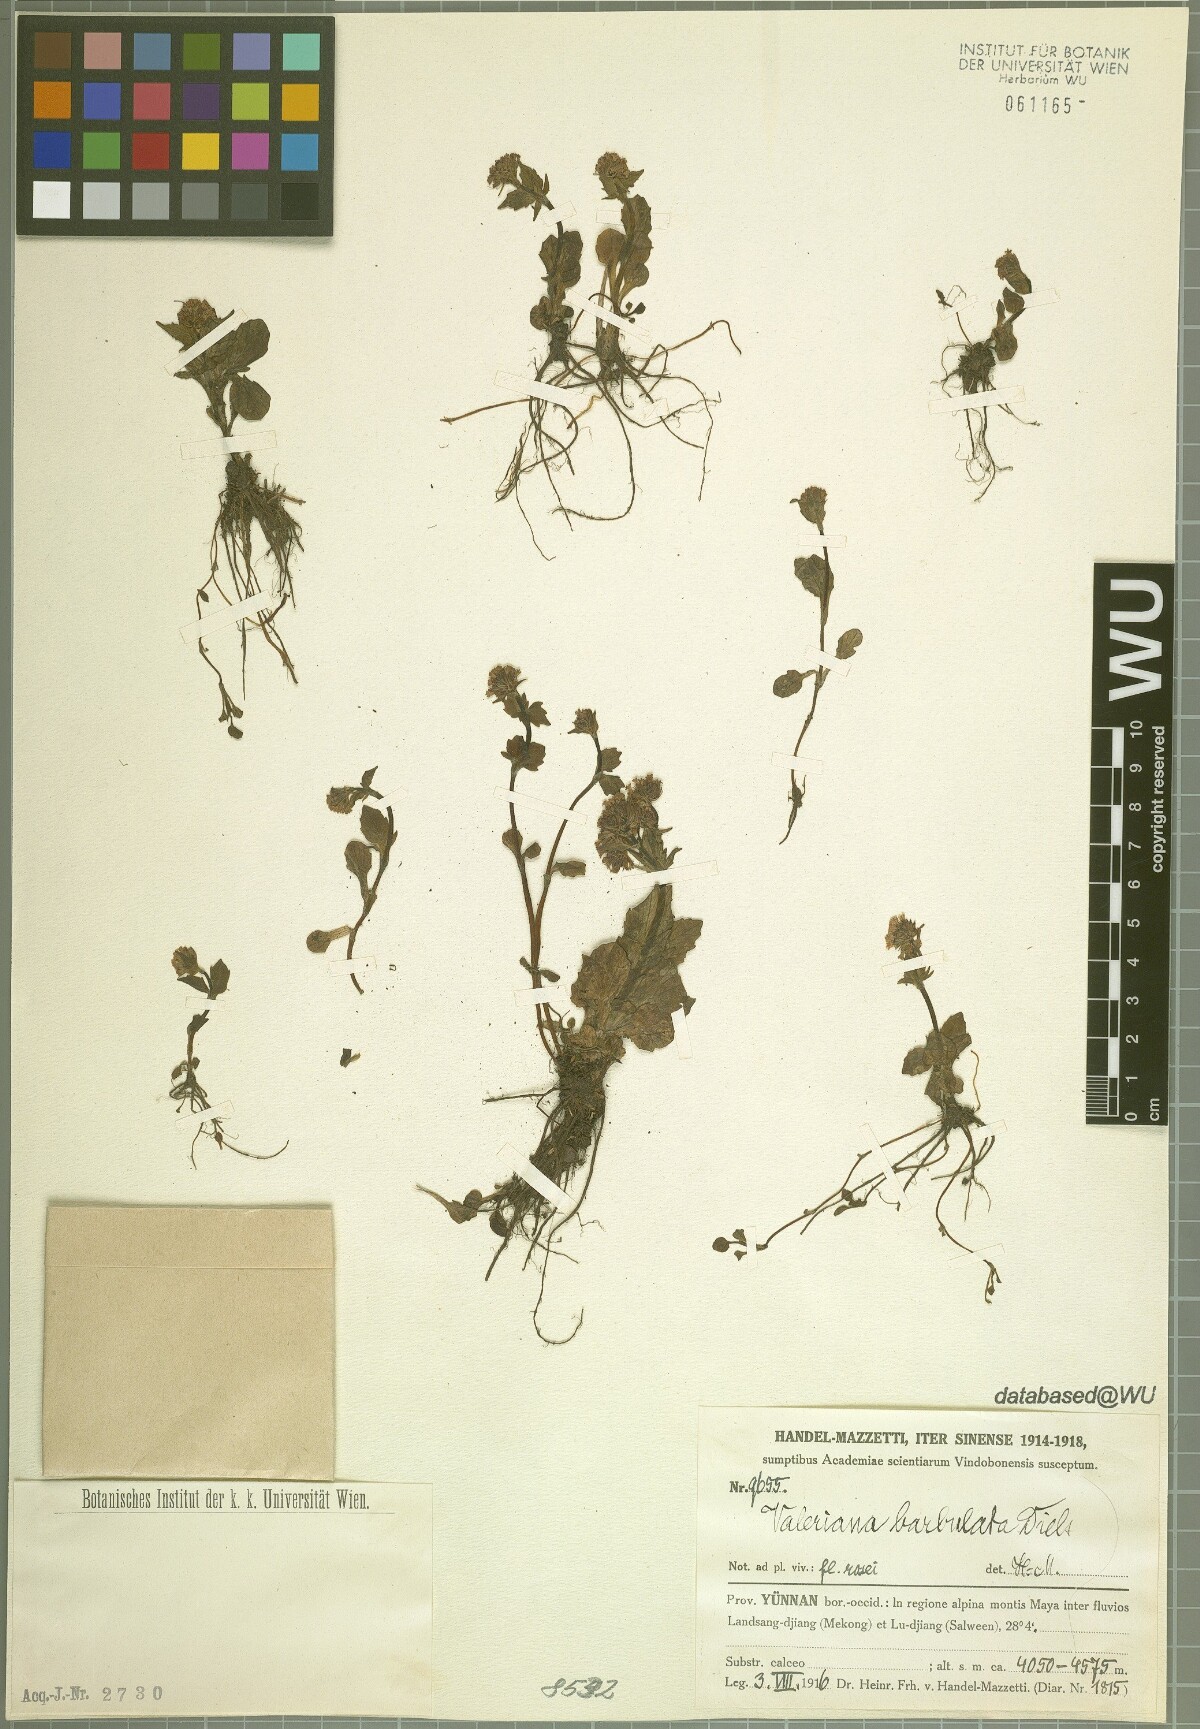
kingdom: Plantae
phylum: Tracheophyta
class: Magnoliopsida
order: Dipsacales
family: Caprifoliaceae
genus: Valeriana
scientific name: Valeriana barbulata
